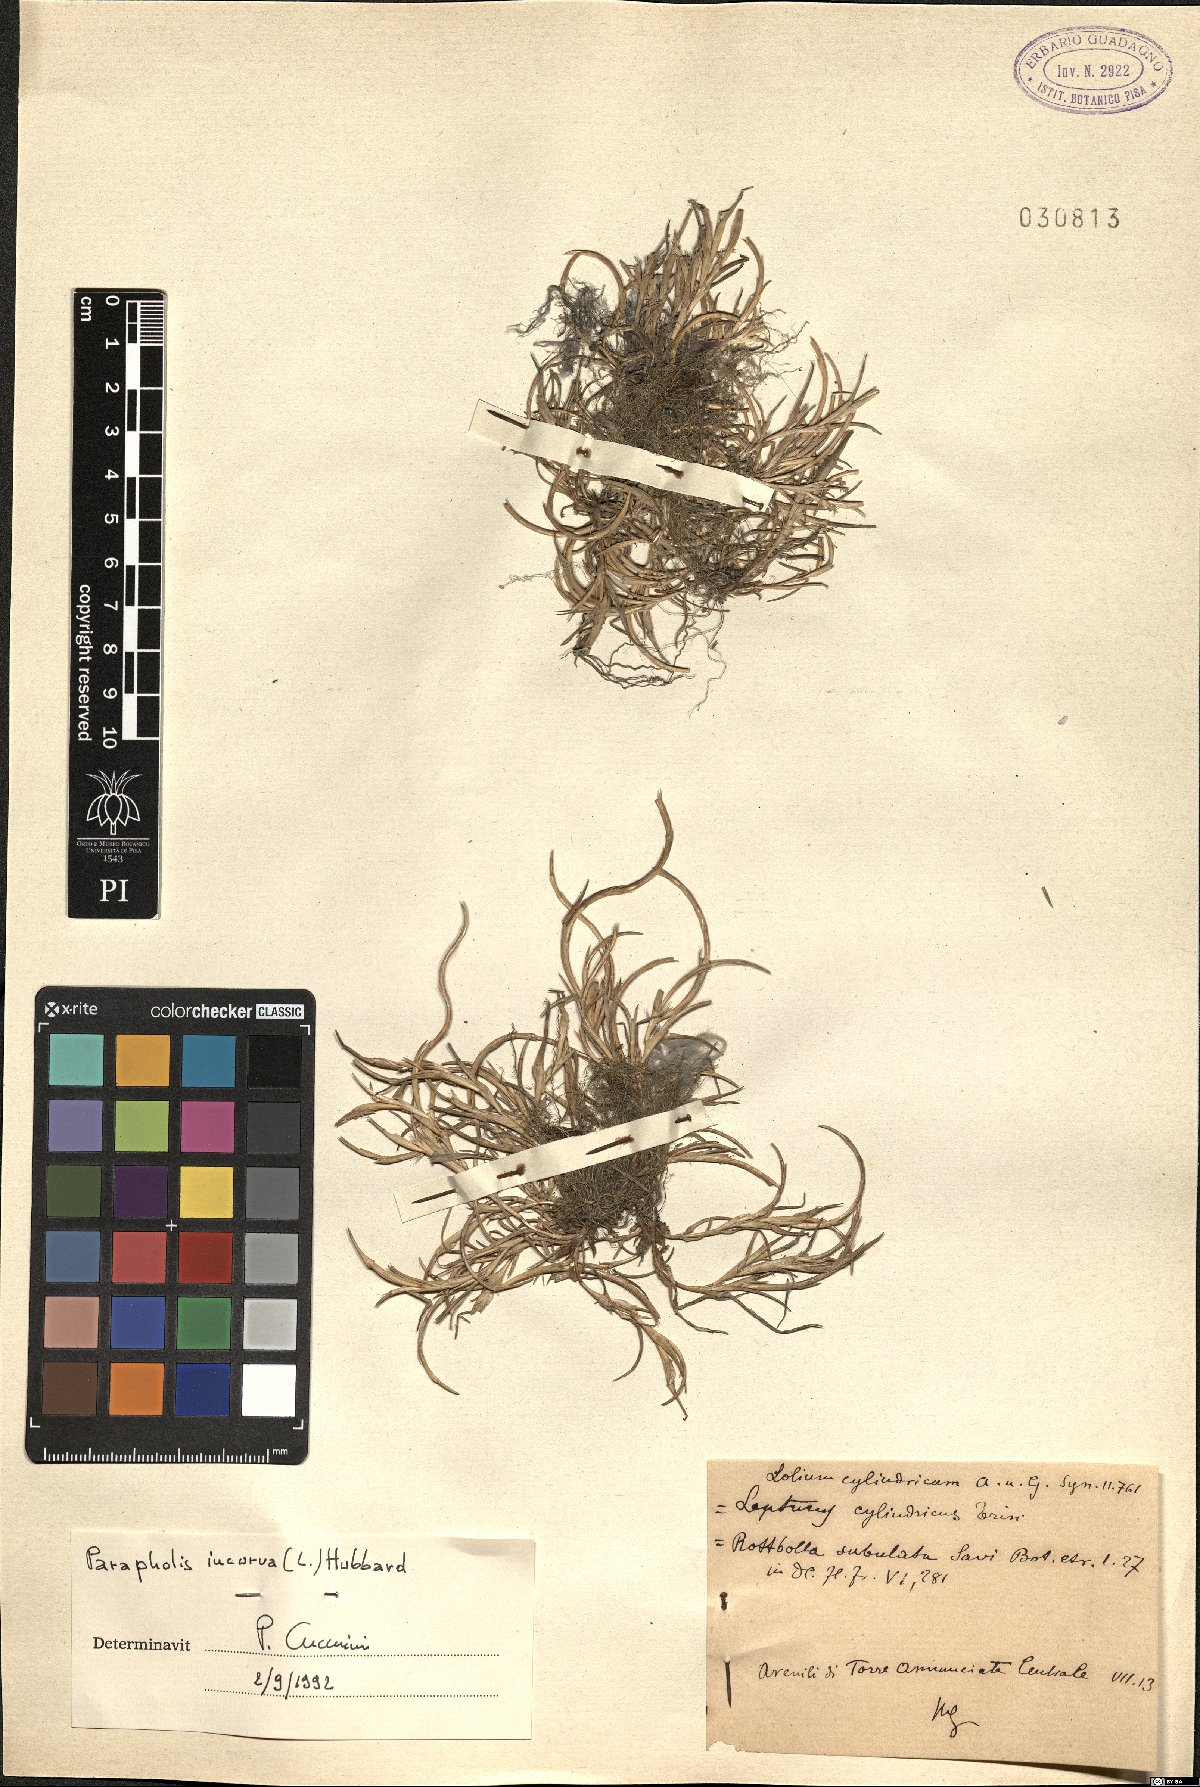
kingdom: Plantae
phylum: Tracheophyta
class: Liliopsida
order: Poales
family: Poaceae
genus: Parapholis
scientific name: Parapholis incurva
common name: Curved sicklegrass
